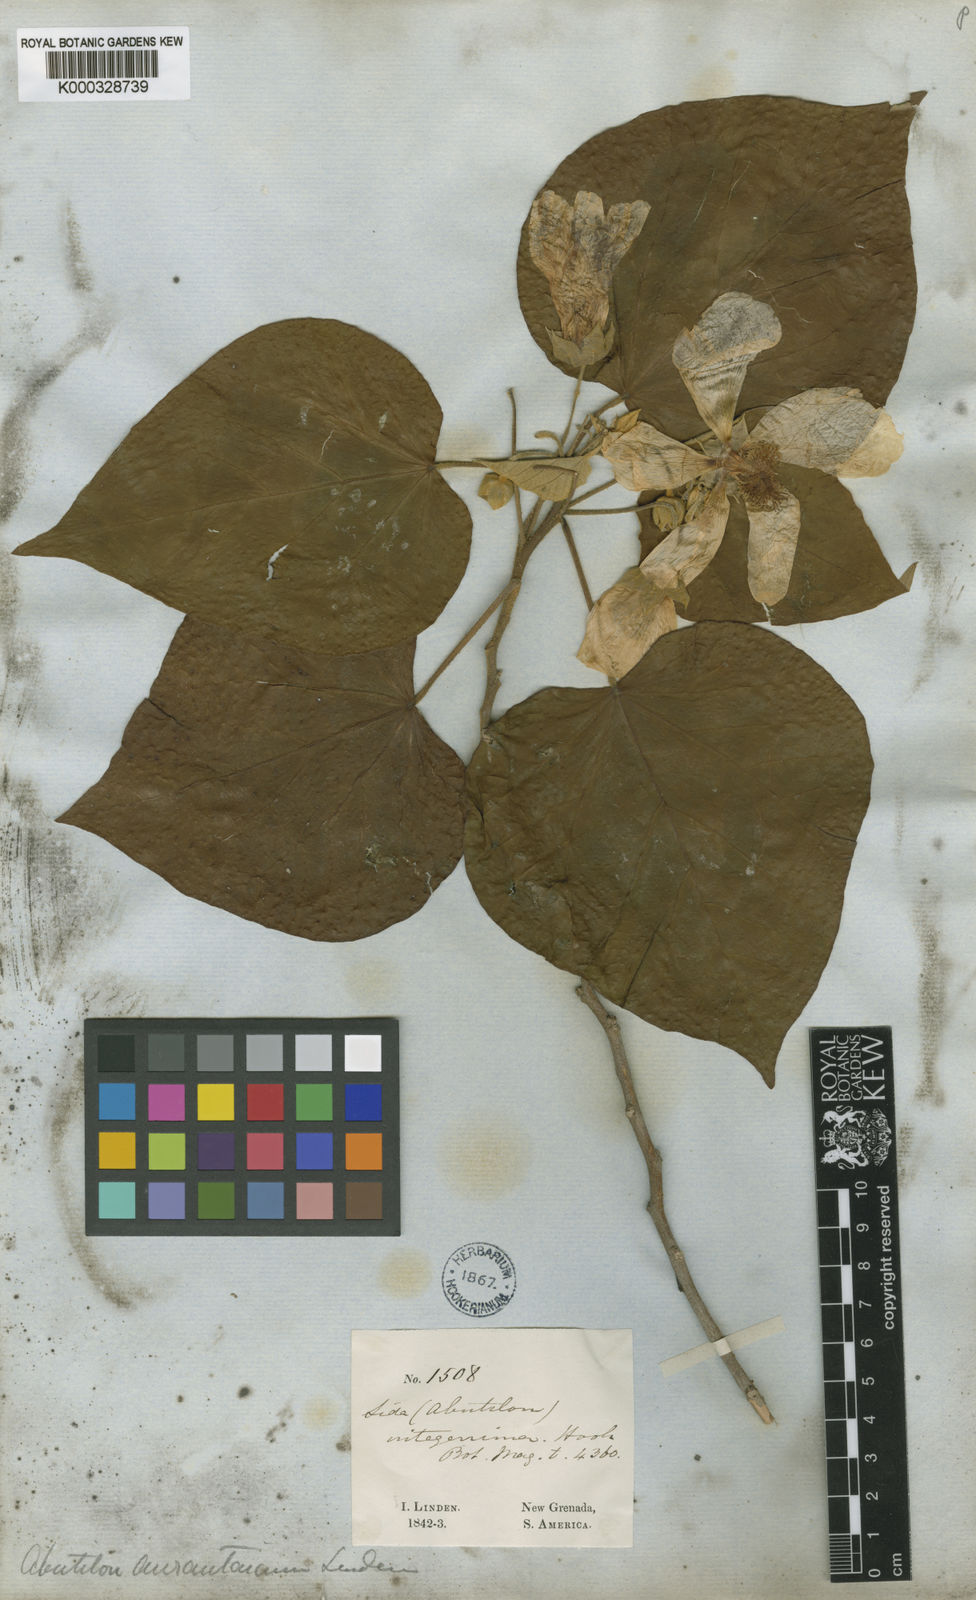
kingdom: Plantae
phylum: Tracheophyta
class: Magnoliopsida
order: Malvales
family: Malvaceae
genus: Bakeridesia
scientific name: Bakeridesia integerrima
